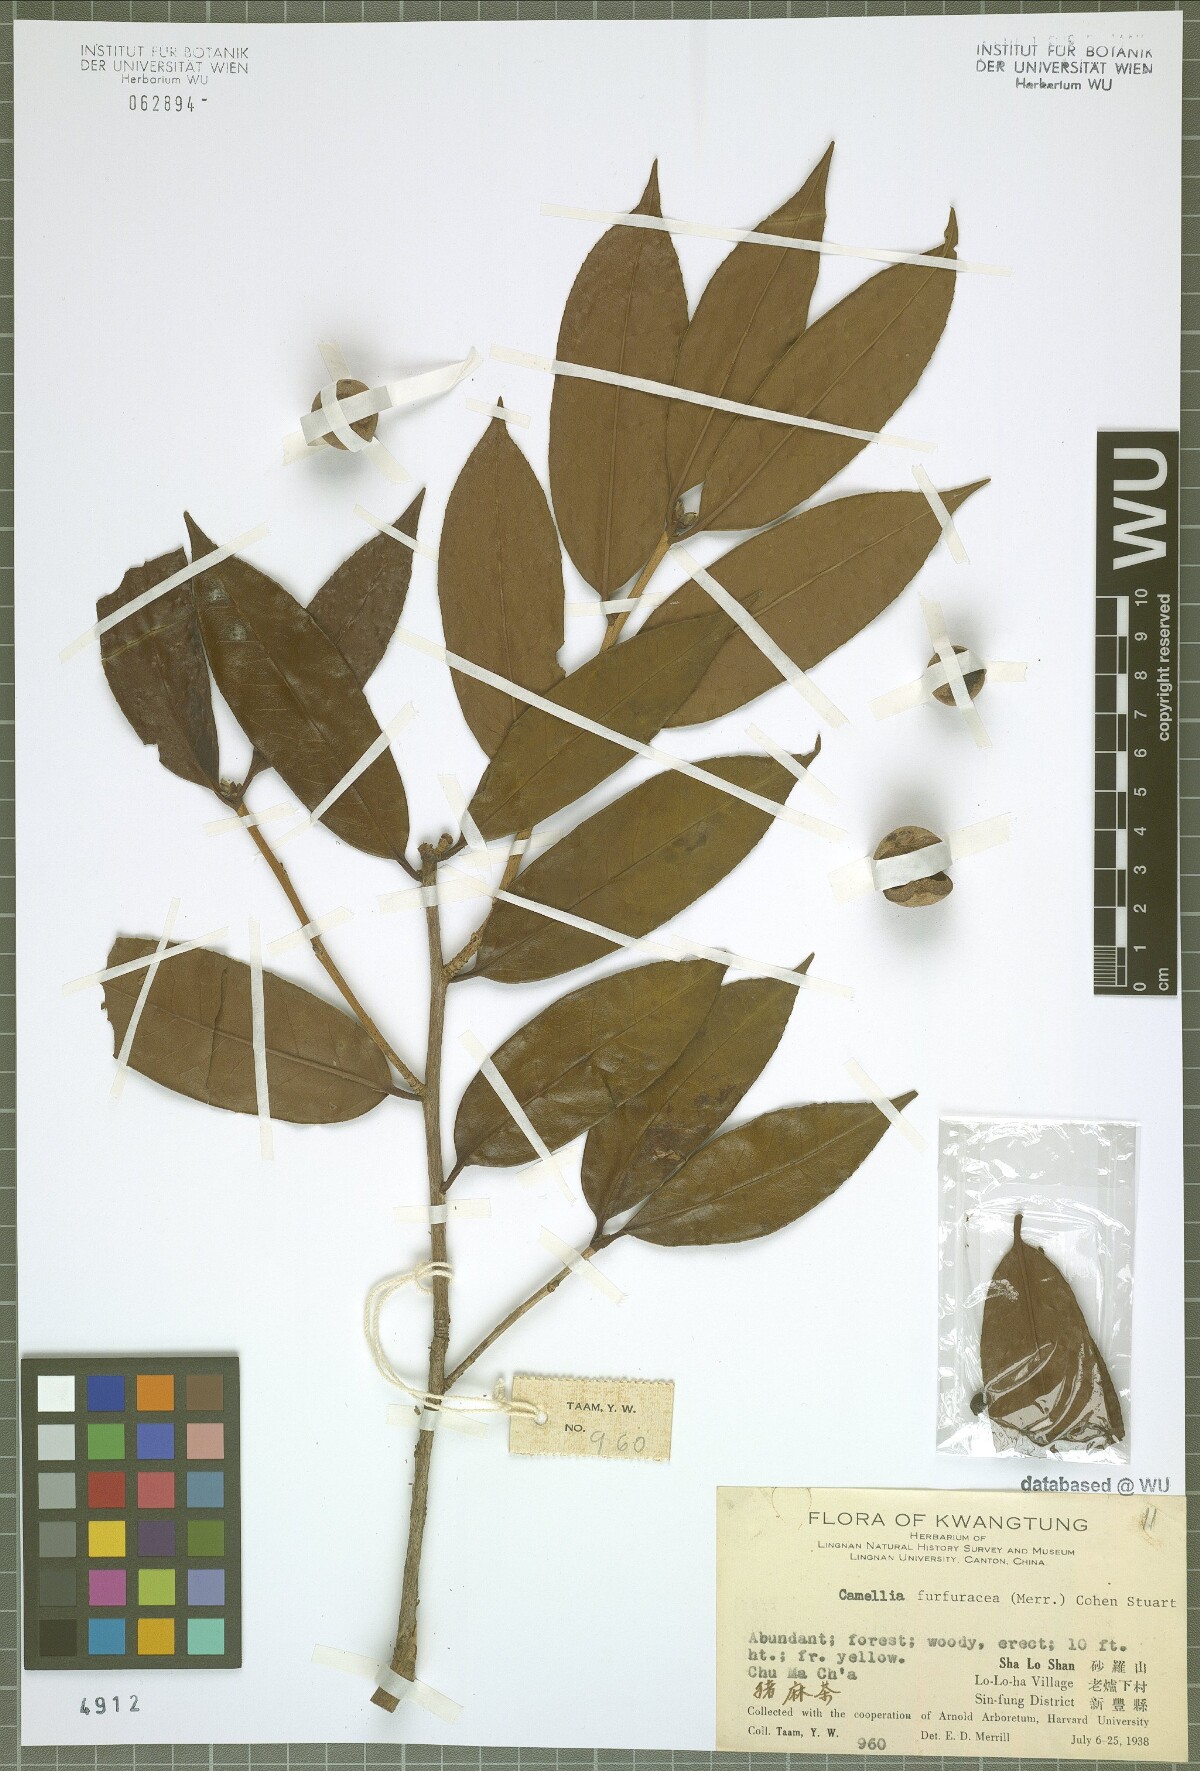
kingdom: Plantae
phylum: Tracheophyta
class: Magnoliopsida
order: Ericales
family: Theaceae
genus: Camellia
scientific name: Camellia furfuracea
